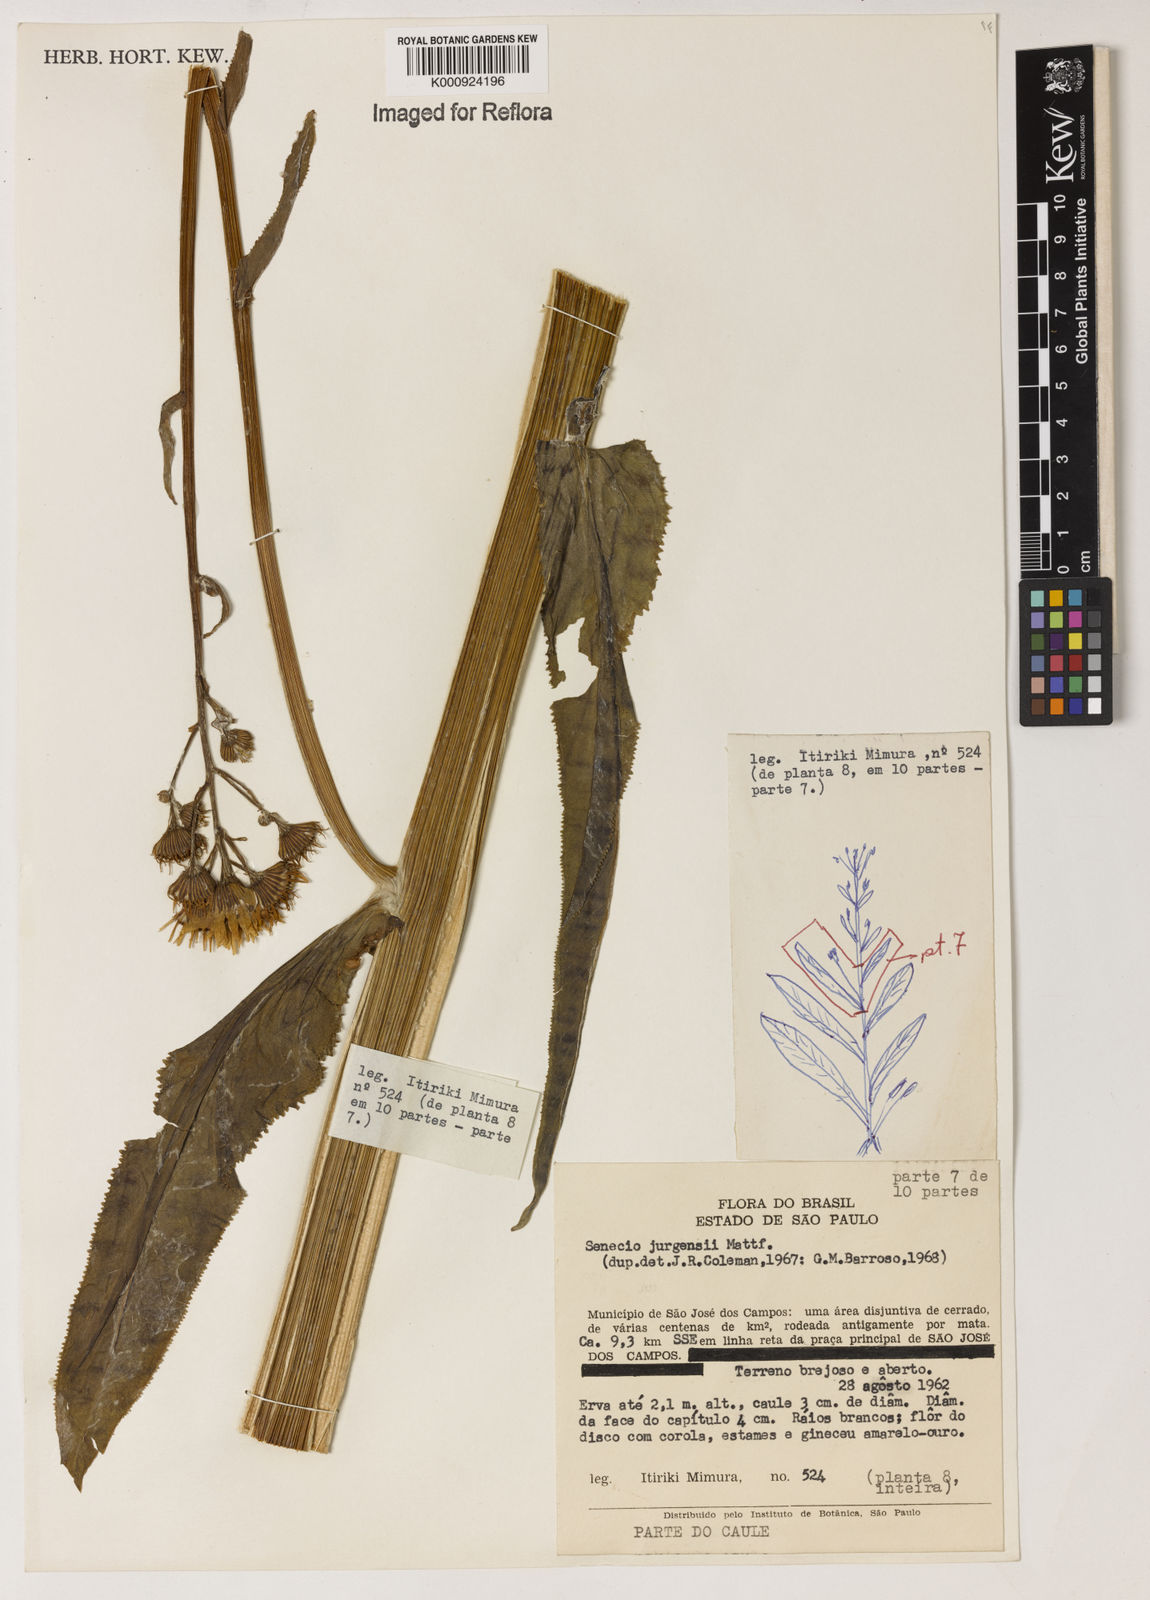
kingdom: Plantae
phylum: Tracheophyta
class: Magnoliopsida
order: Asterales
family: Asteraceae
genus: Senecio
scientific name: Senecio juergensii
